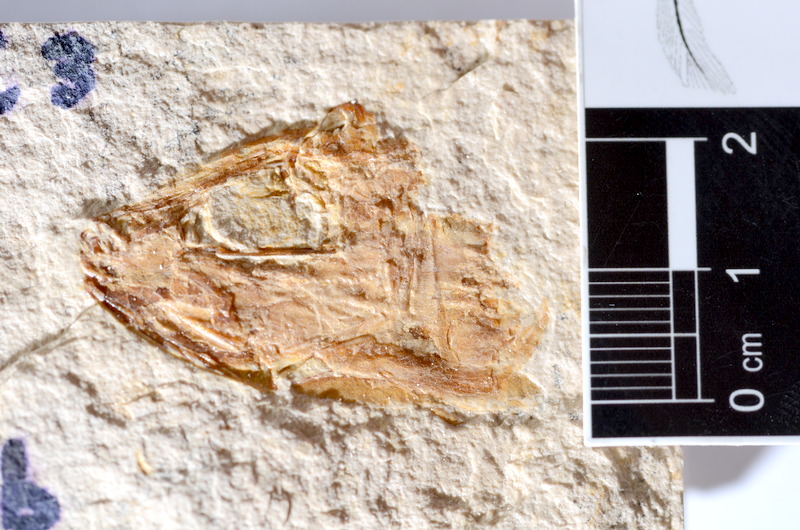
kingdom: Animalia
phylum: Chordata
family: Ascalaboidae
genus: Tharsis
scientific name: Tharsis dubius
